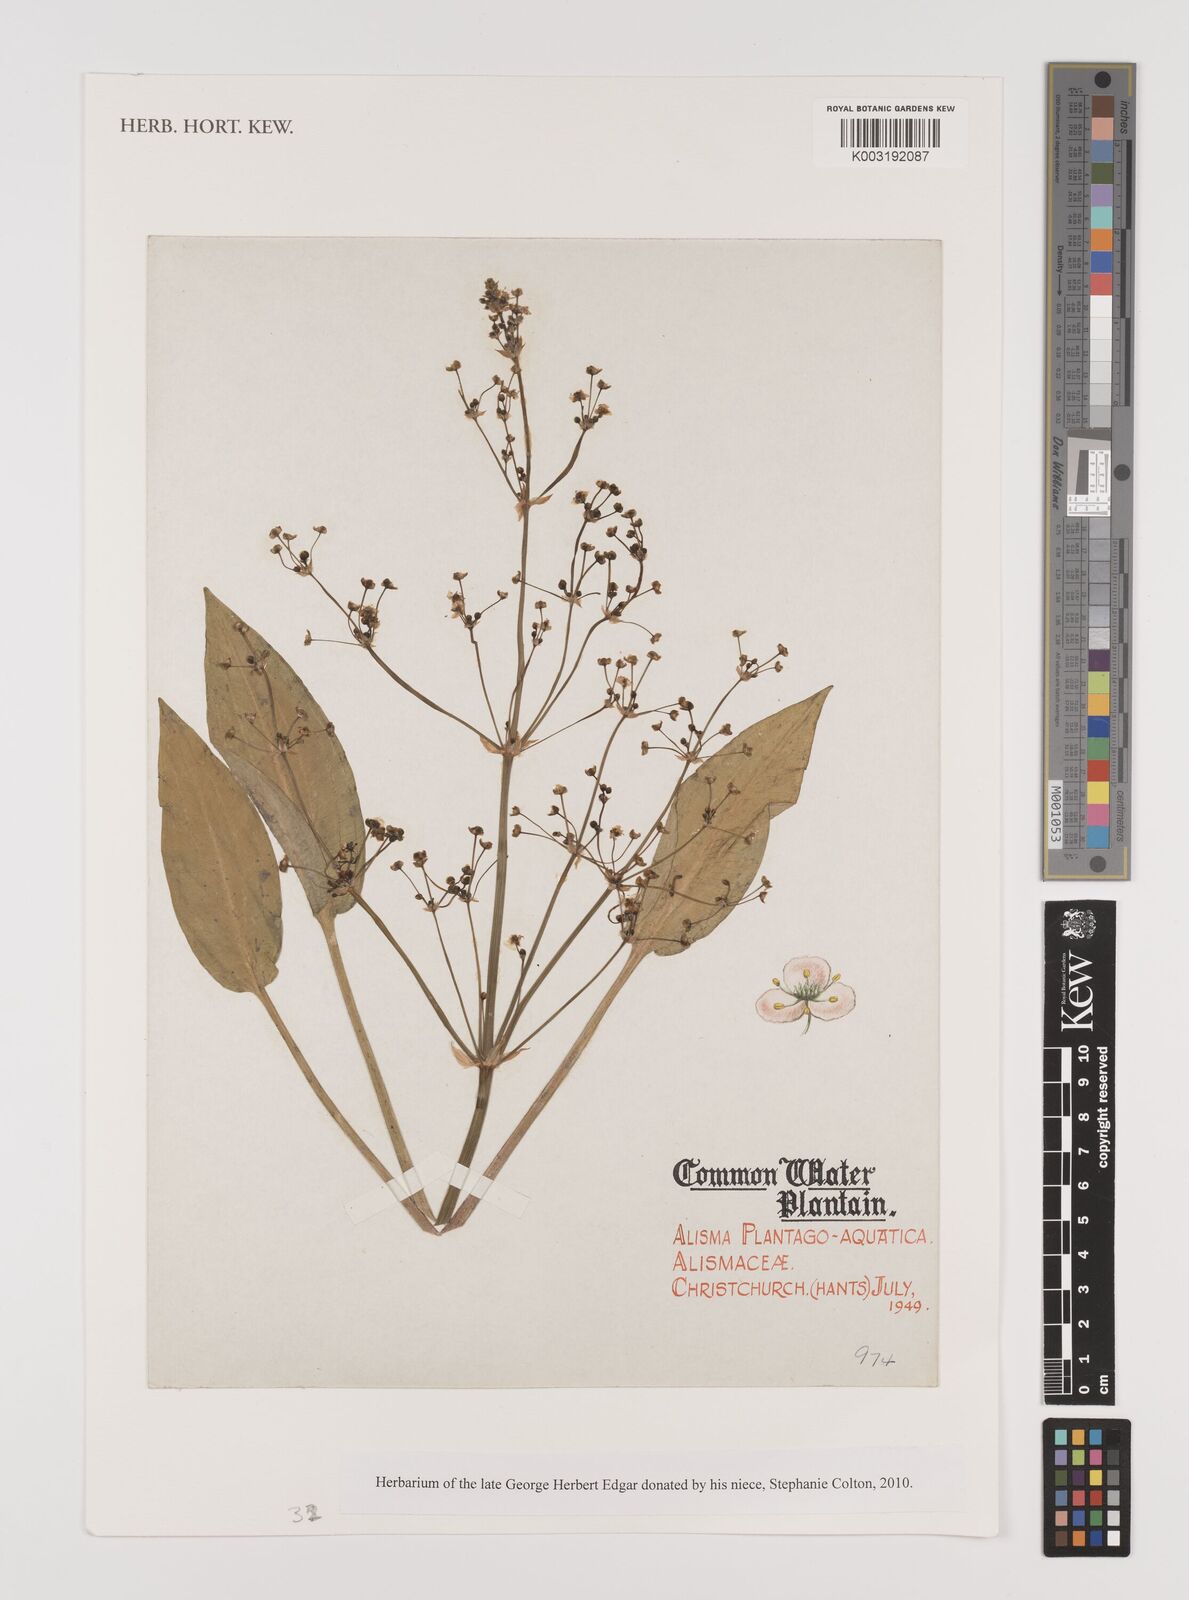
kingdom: Plantae
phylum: Tracheophyta
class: Liliopsida
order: Alismatales
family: Alismataceae
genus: Alisma
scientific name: Alisma plantago-aquatica
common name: Water-plantain
